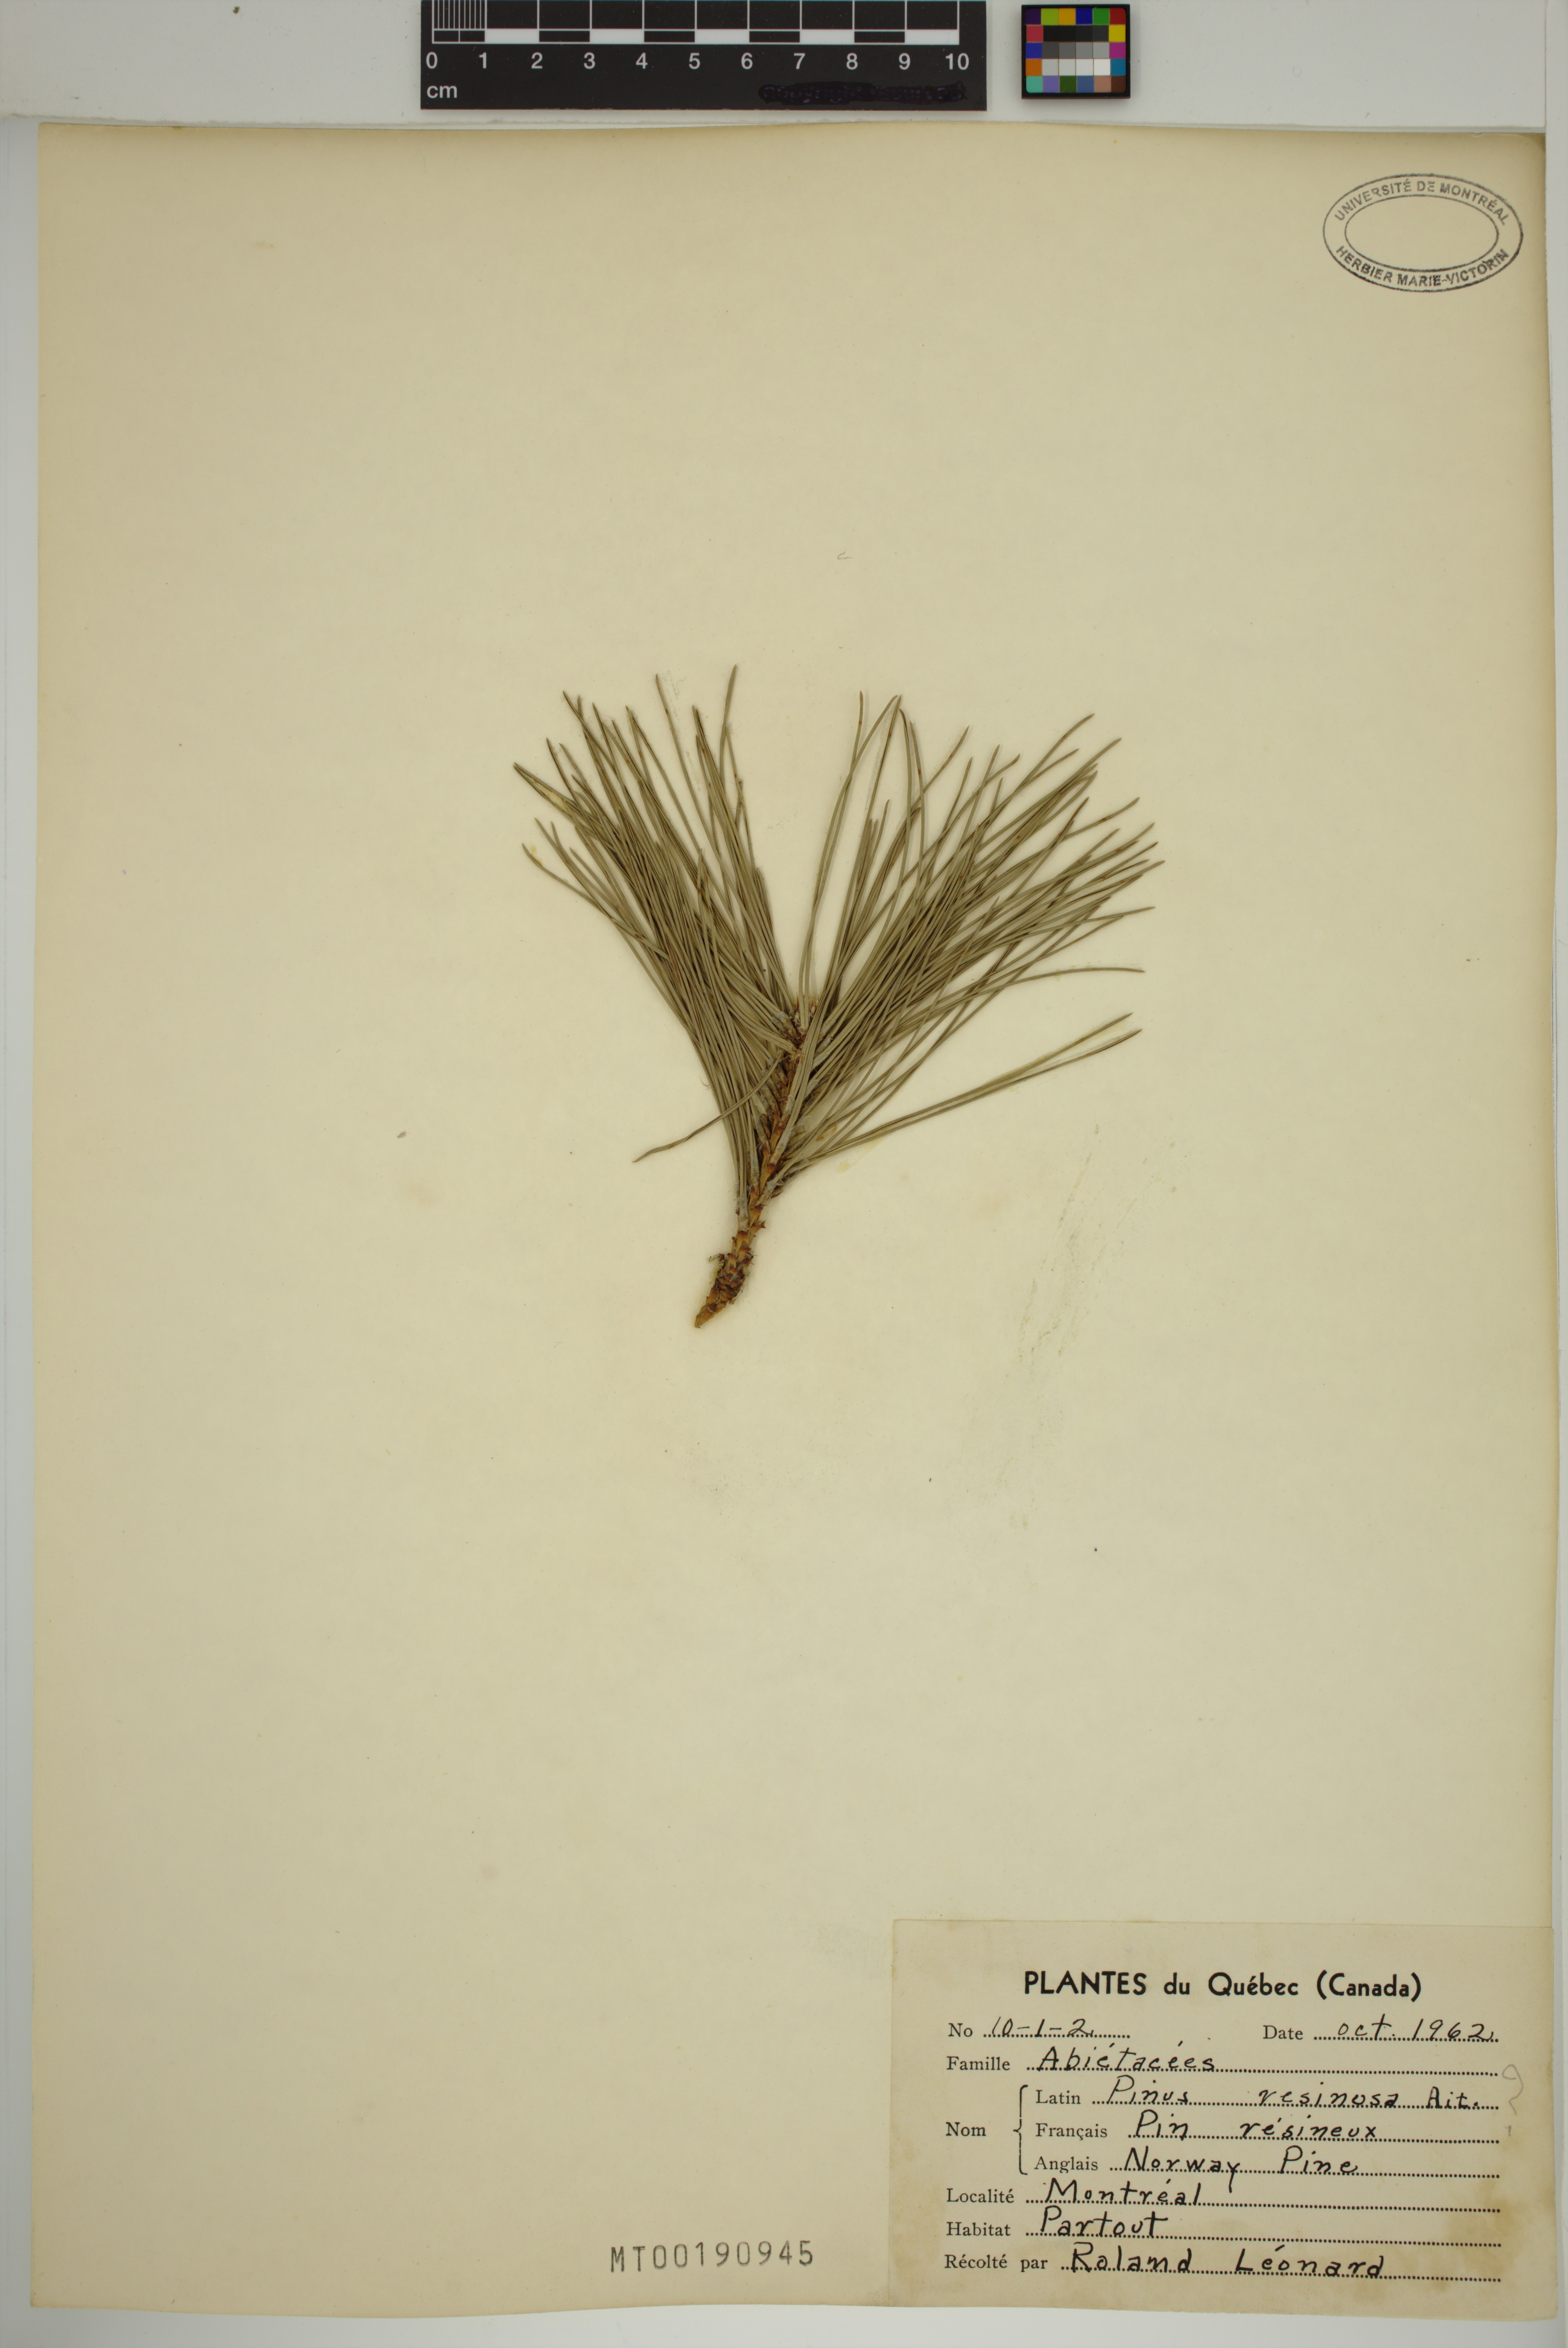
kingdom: Plantae
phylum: Tracheophyta
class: Pinopsida
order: Pinales
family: Pinaceae
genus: Pinus
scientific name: Pinus resinosa
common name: Norway pine
